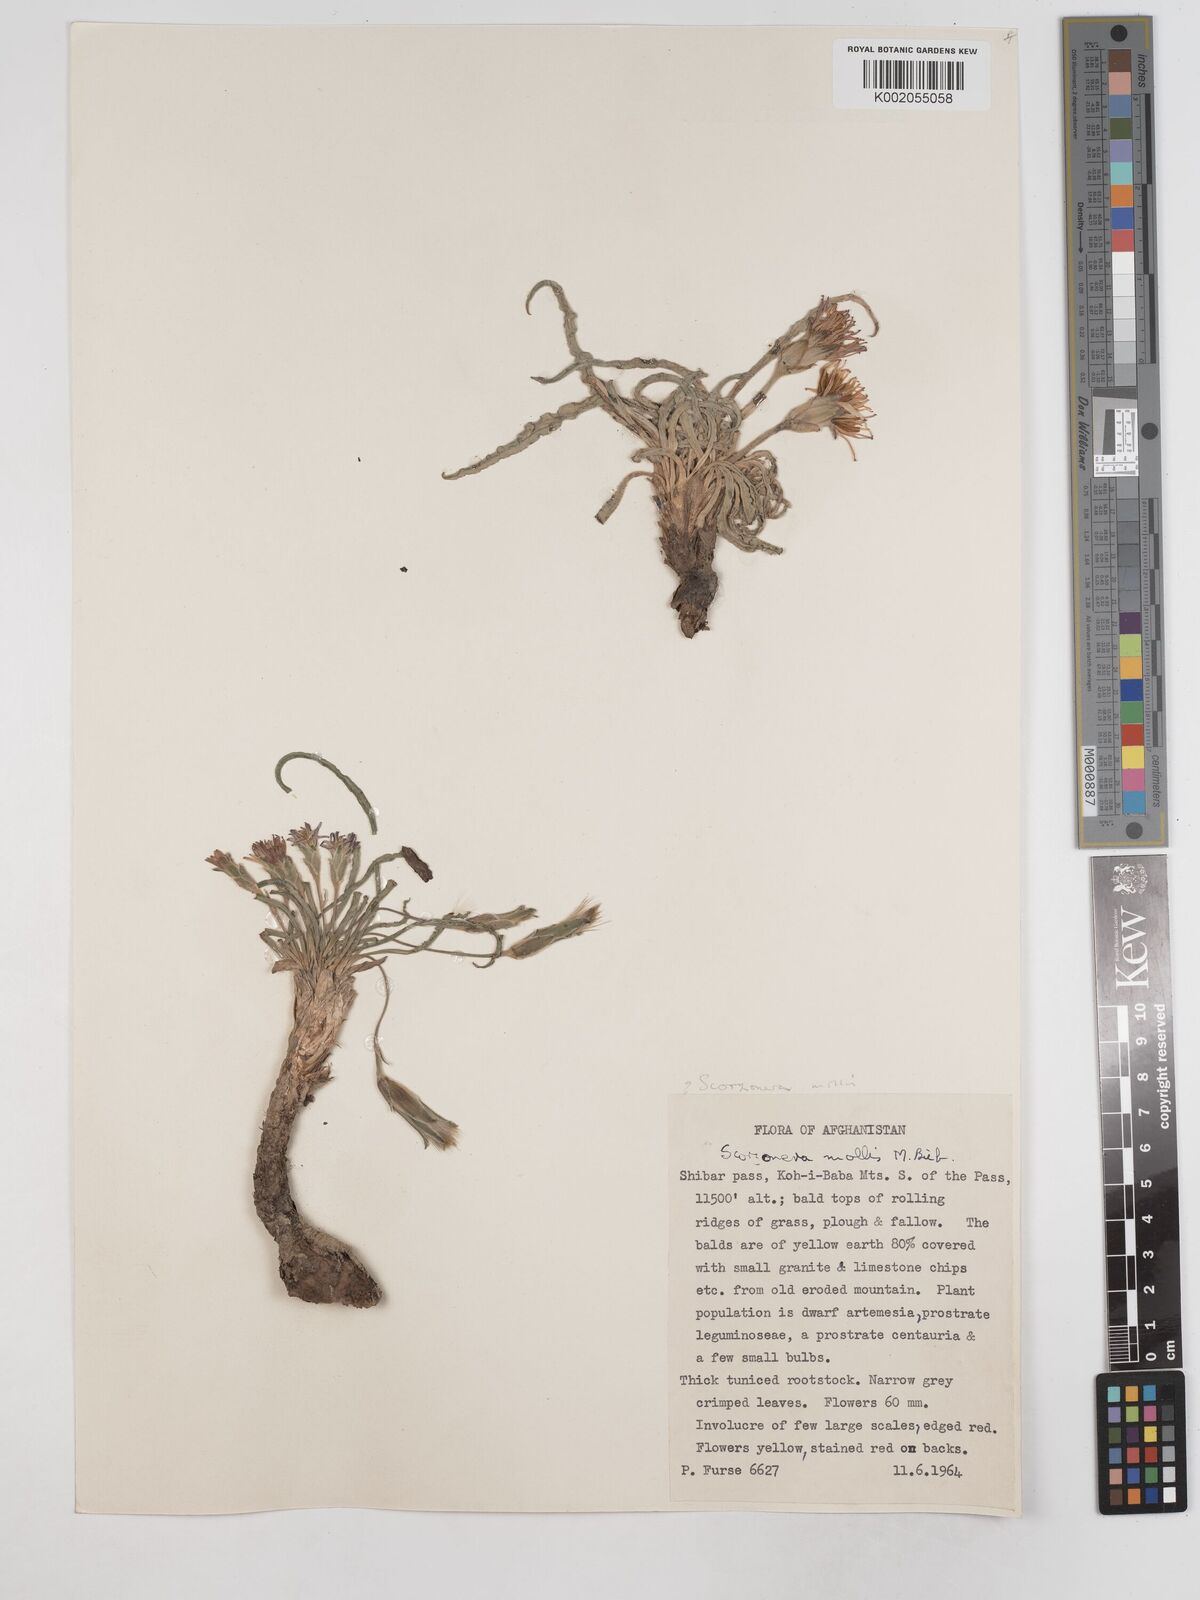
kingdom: Plantae
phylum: Tracheophyta
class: Magnoliopsida
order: Asterales
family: Asteraceae
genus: Candollea
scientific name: Candollea mollis
